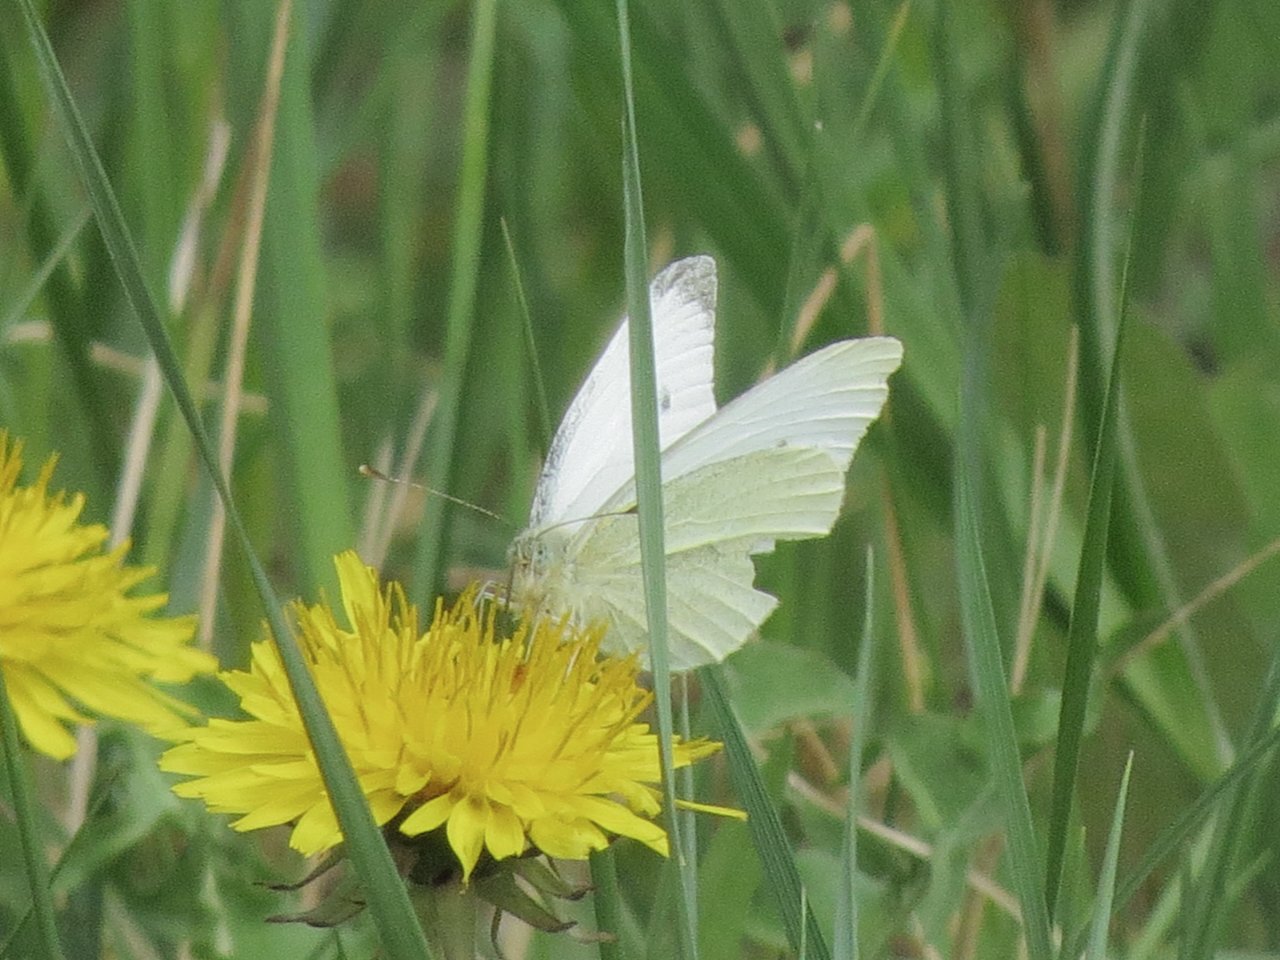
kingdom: Animalia
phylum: Arthropoda
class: Insecta
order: Lepidoptera
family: Pieridae
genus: Pieris
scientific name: Pieris rapae
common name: Cabbage White
